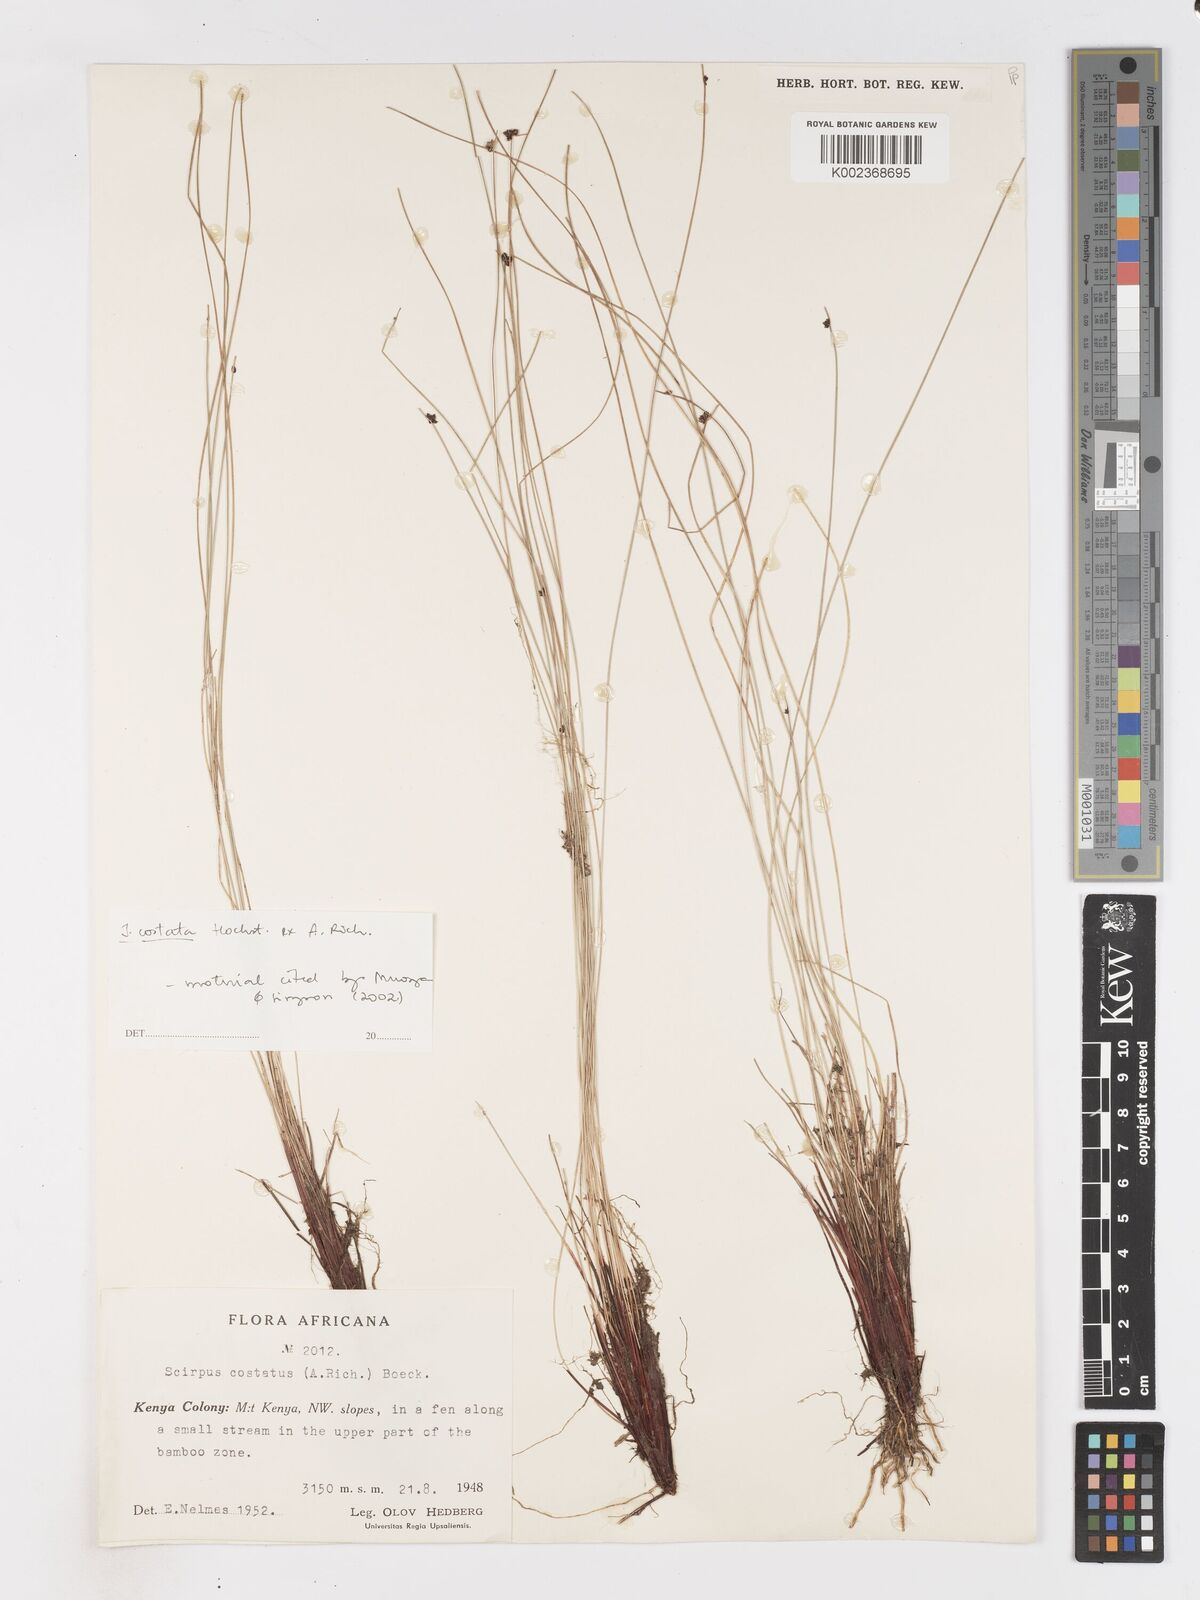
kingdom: Plantae
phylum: Tracheophyta
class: Liliopsida
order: Poales
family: Cyperaceae
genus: Isolepis
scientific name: Isolepis costata
